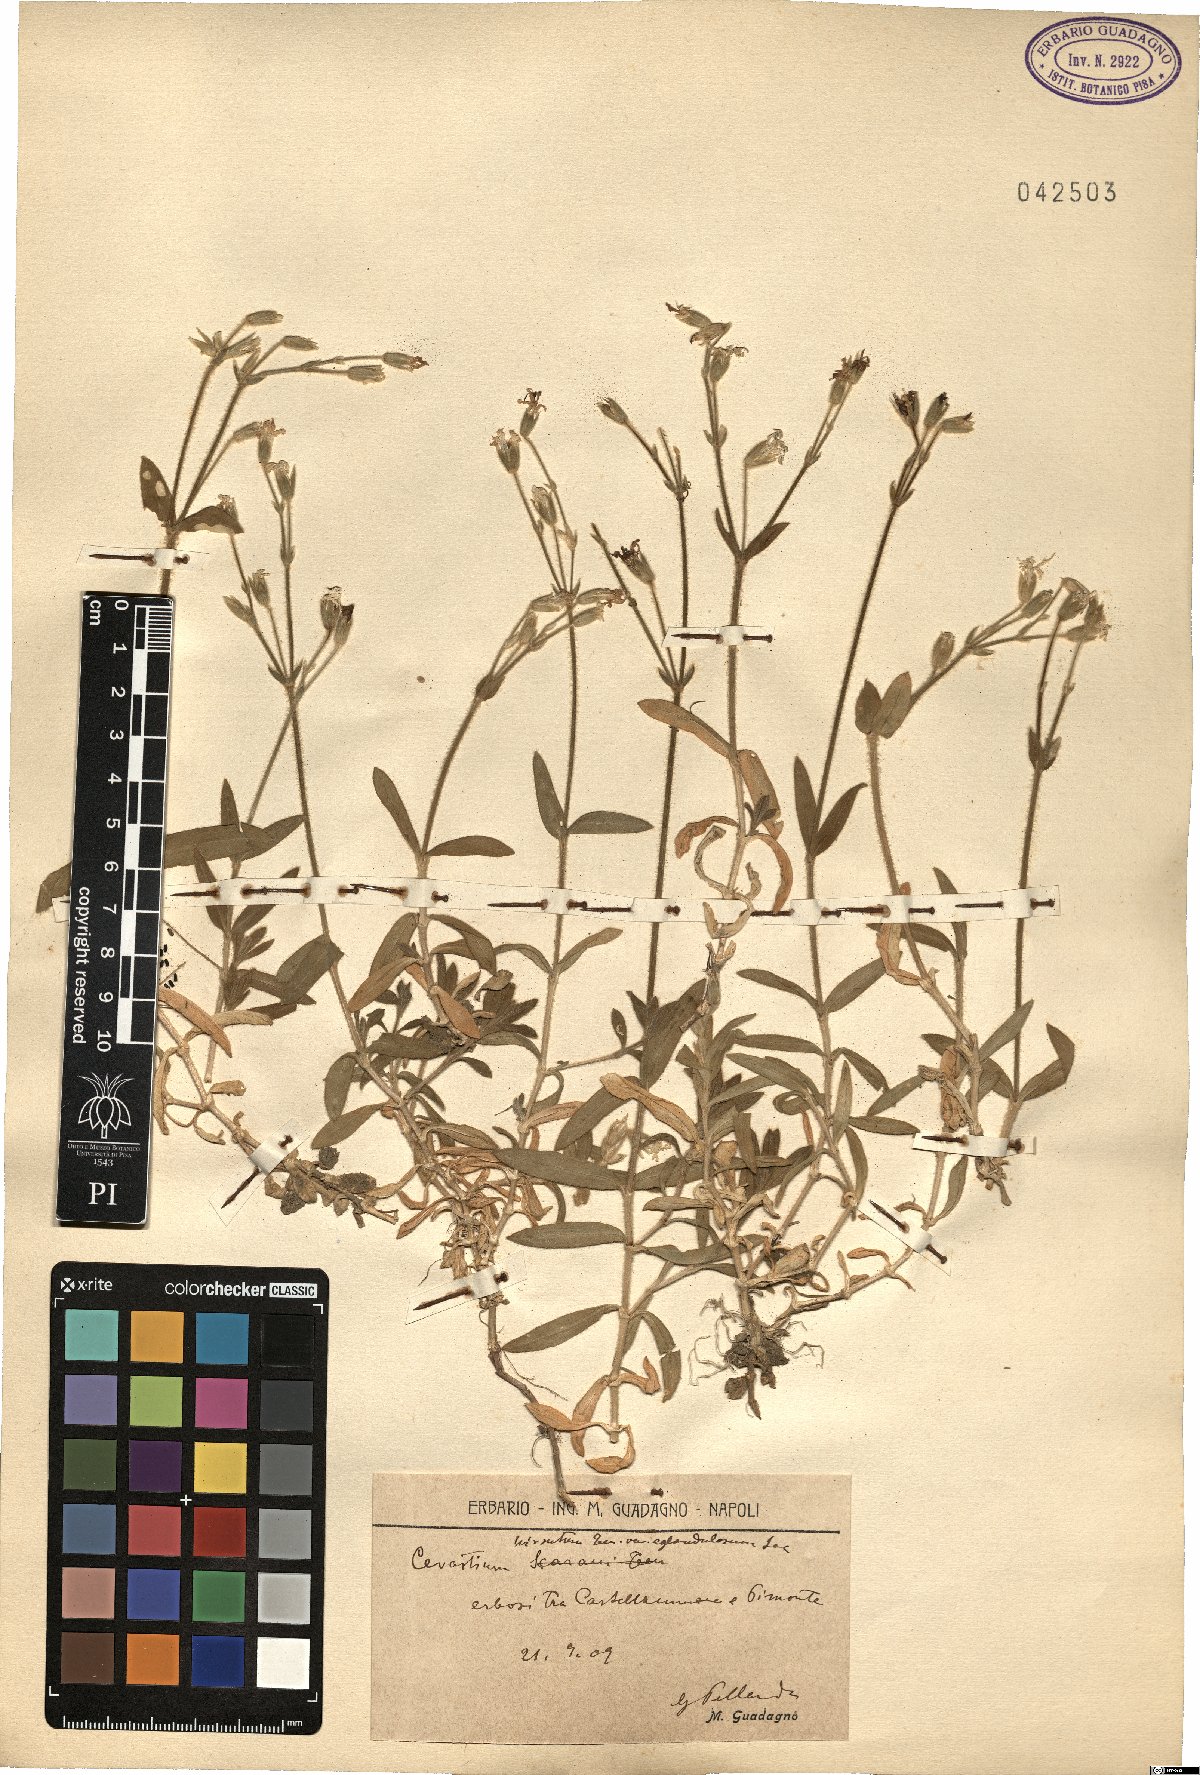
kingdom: Plantae
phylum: Tracheophyta
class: Magnoliopsida
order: Caryophyllales
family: Caryophyllaceae
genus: Cerastium
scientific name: Cerastium
